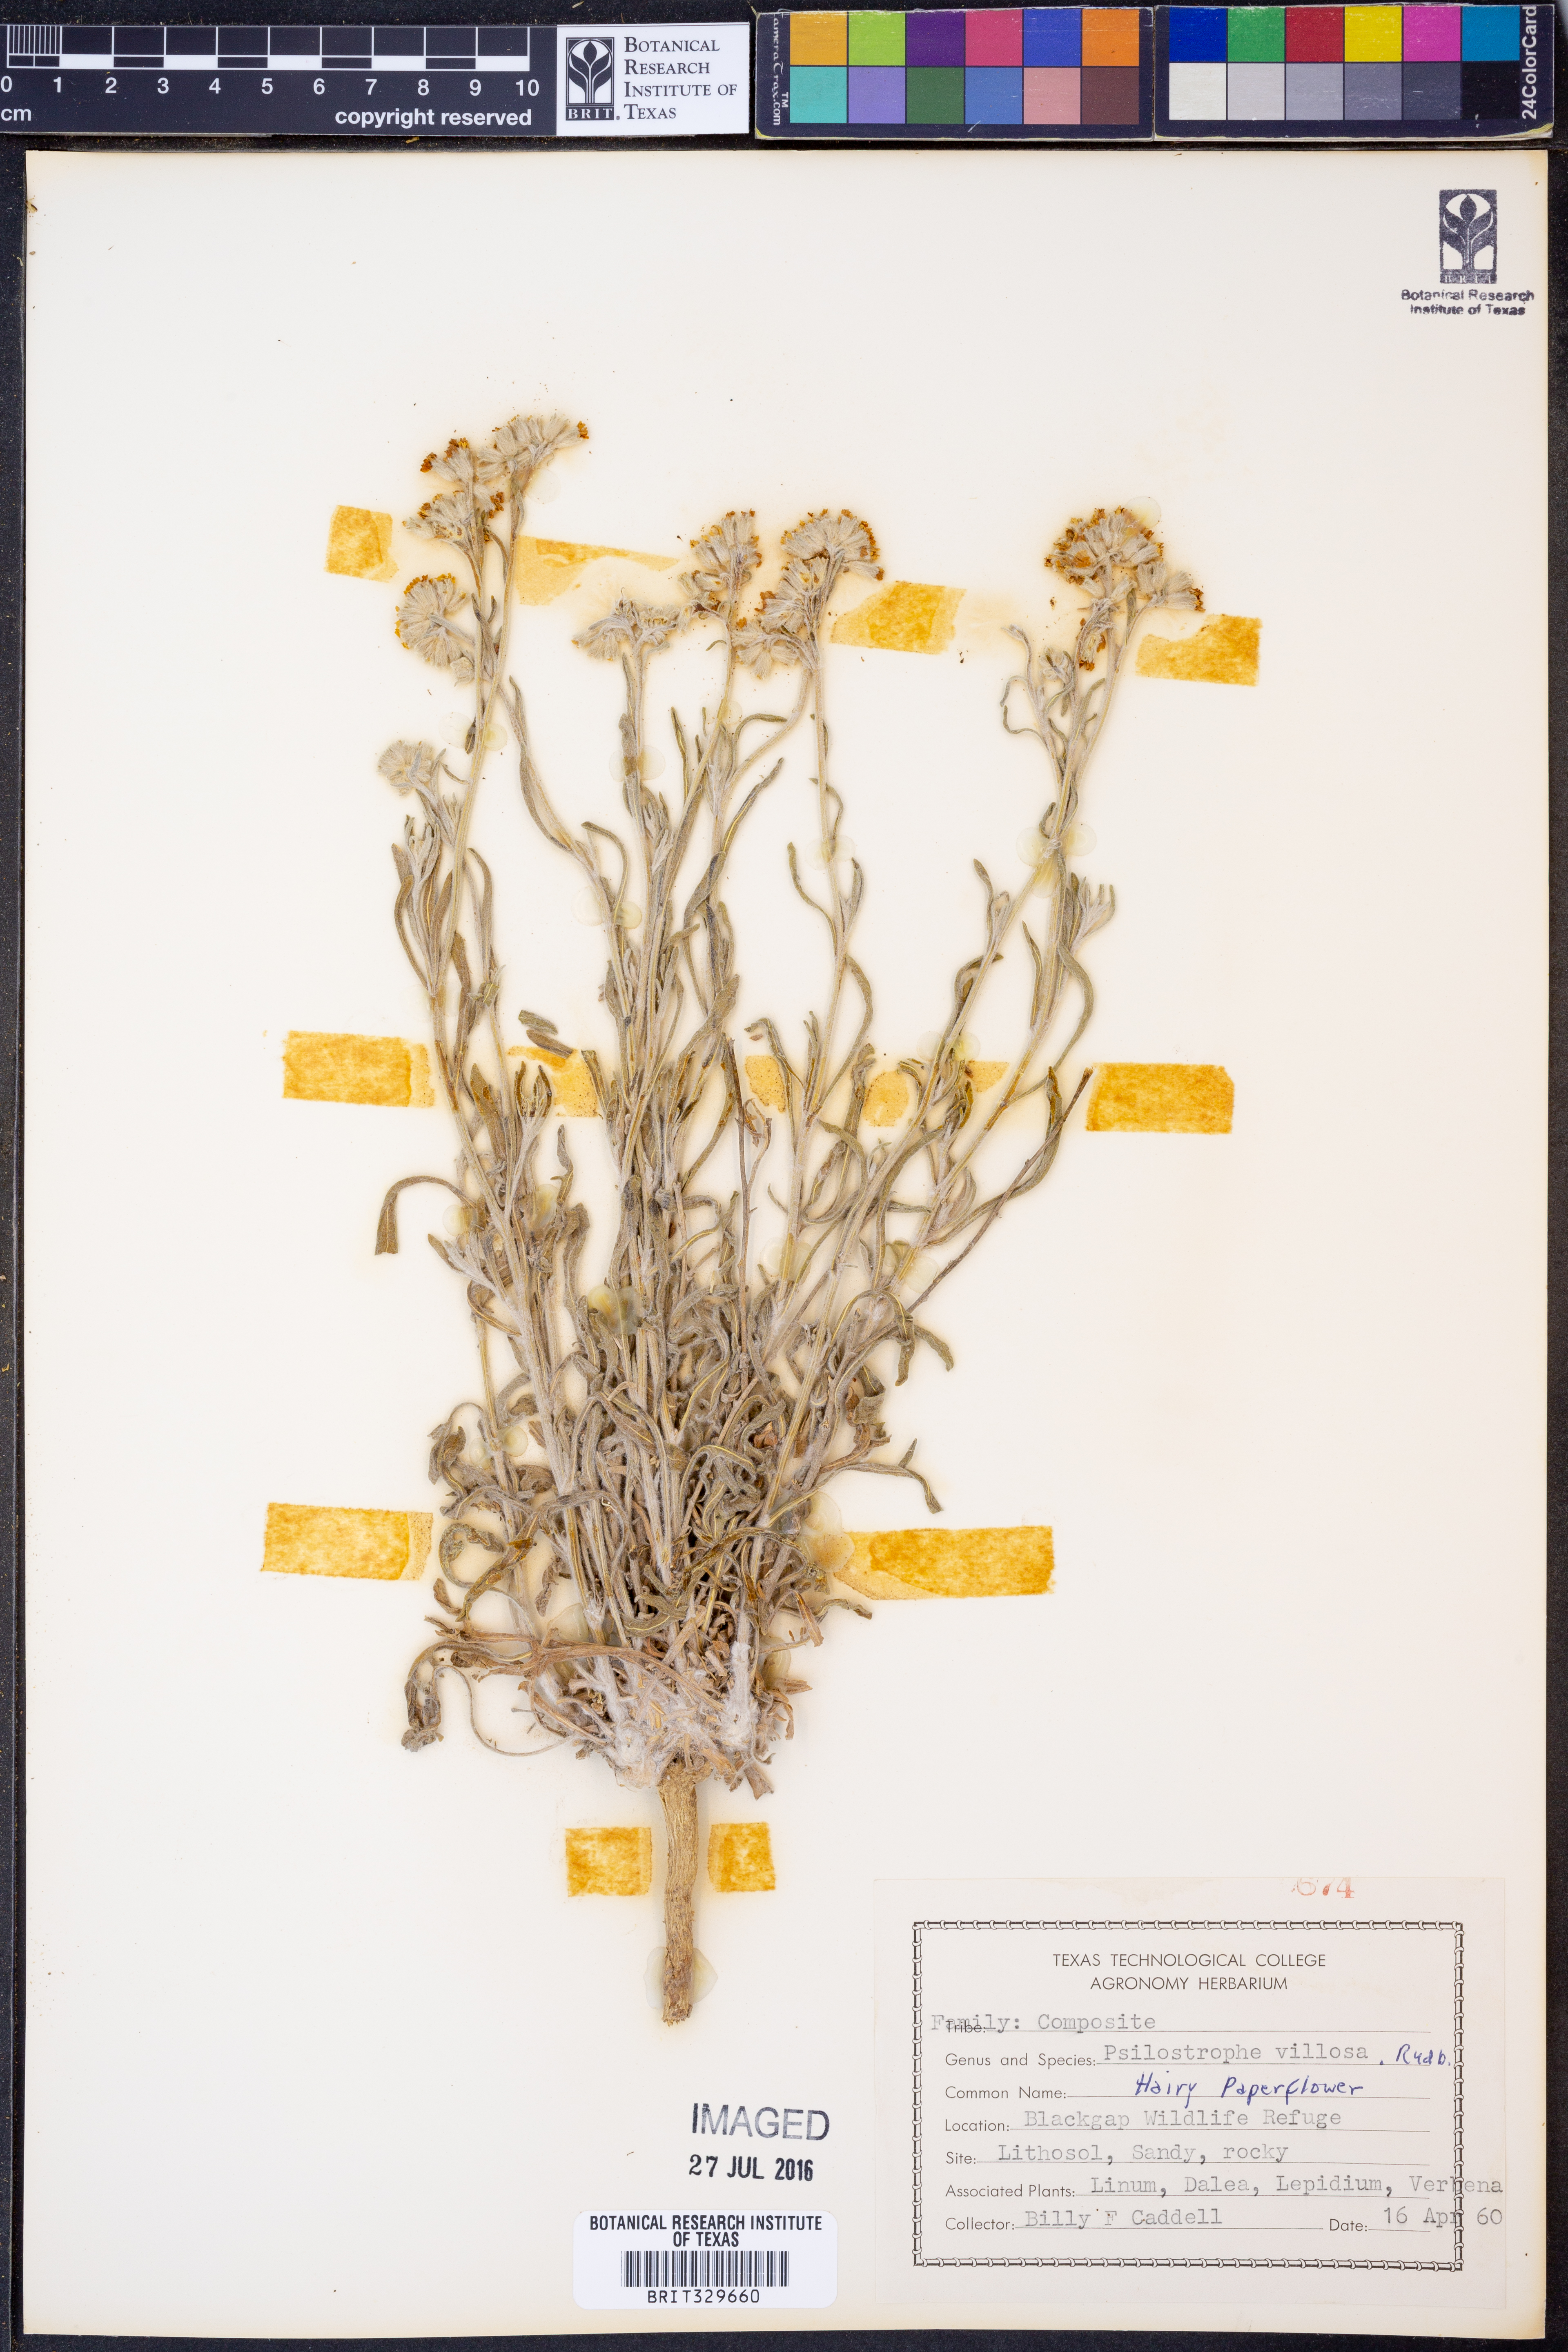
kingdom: Plantae
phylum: Tracheophyta
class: Magnoliopsida
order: Asterales
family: Asteraceae
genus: Psilostrophe
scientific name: Psilostrophe villosa
